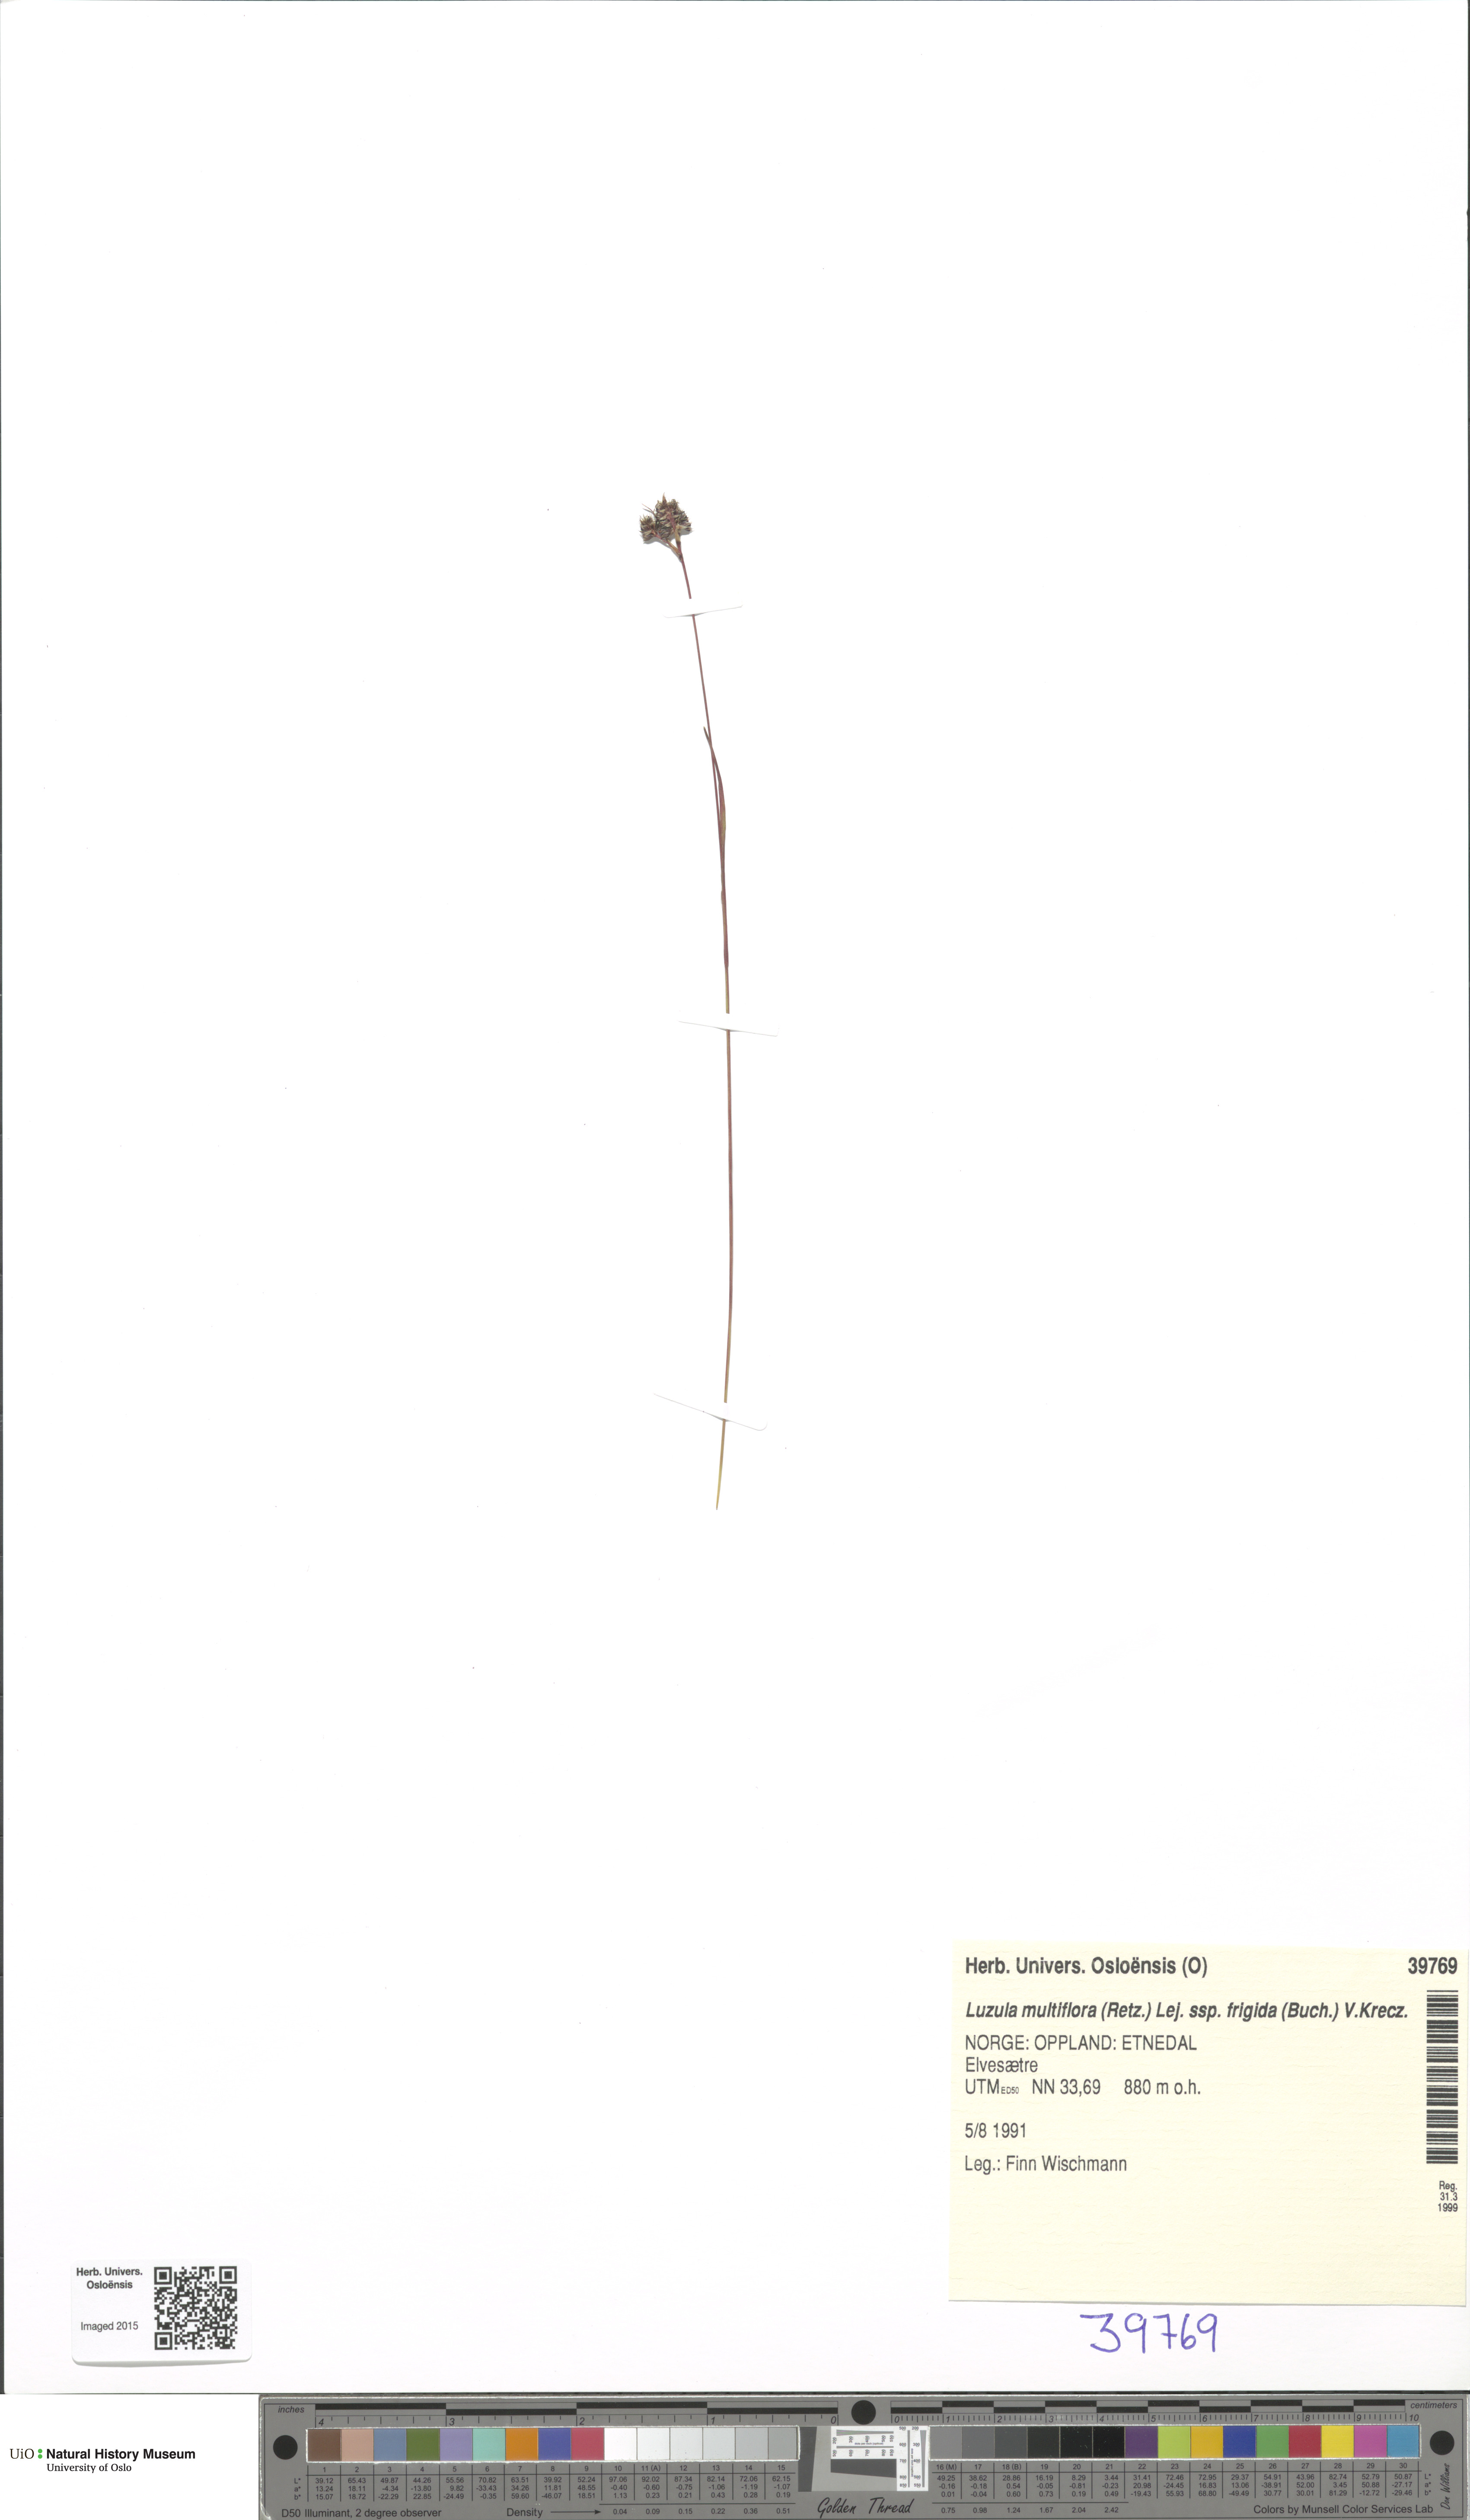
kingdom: Plantae
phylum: Tracheophyta
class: Liliopsida
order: Poales
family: Juncaceae
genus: Luzula
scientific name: Luzula multiflora
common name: Heath wood-rush
